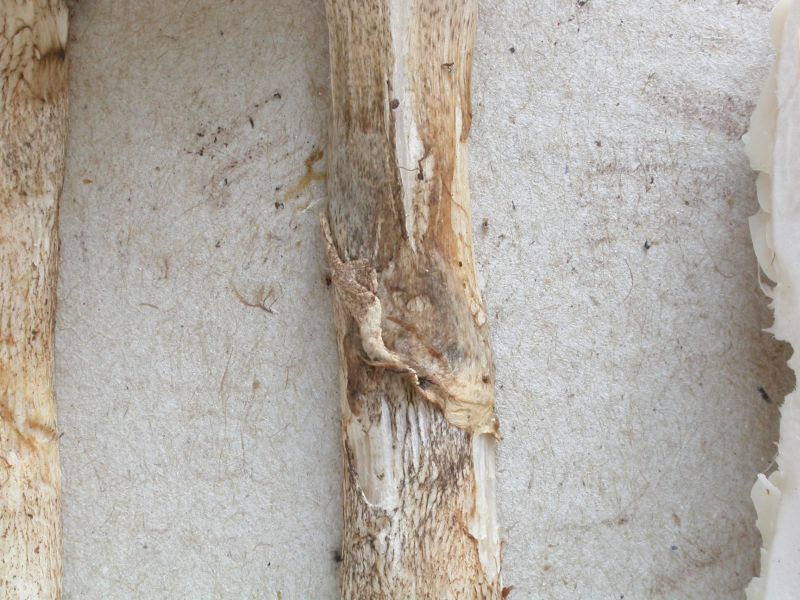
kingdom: Fungi
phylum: Basidiomycota
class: Agaricomycetes
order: Agaricales
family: Amanitaceae
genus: Limacellopsis
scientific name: Limacellopsis guttata
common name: tåre-snekkehat
